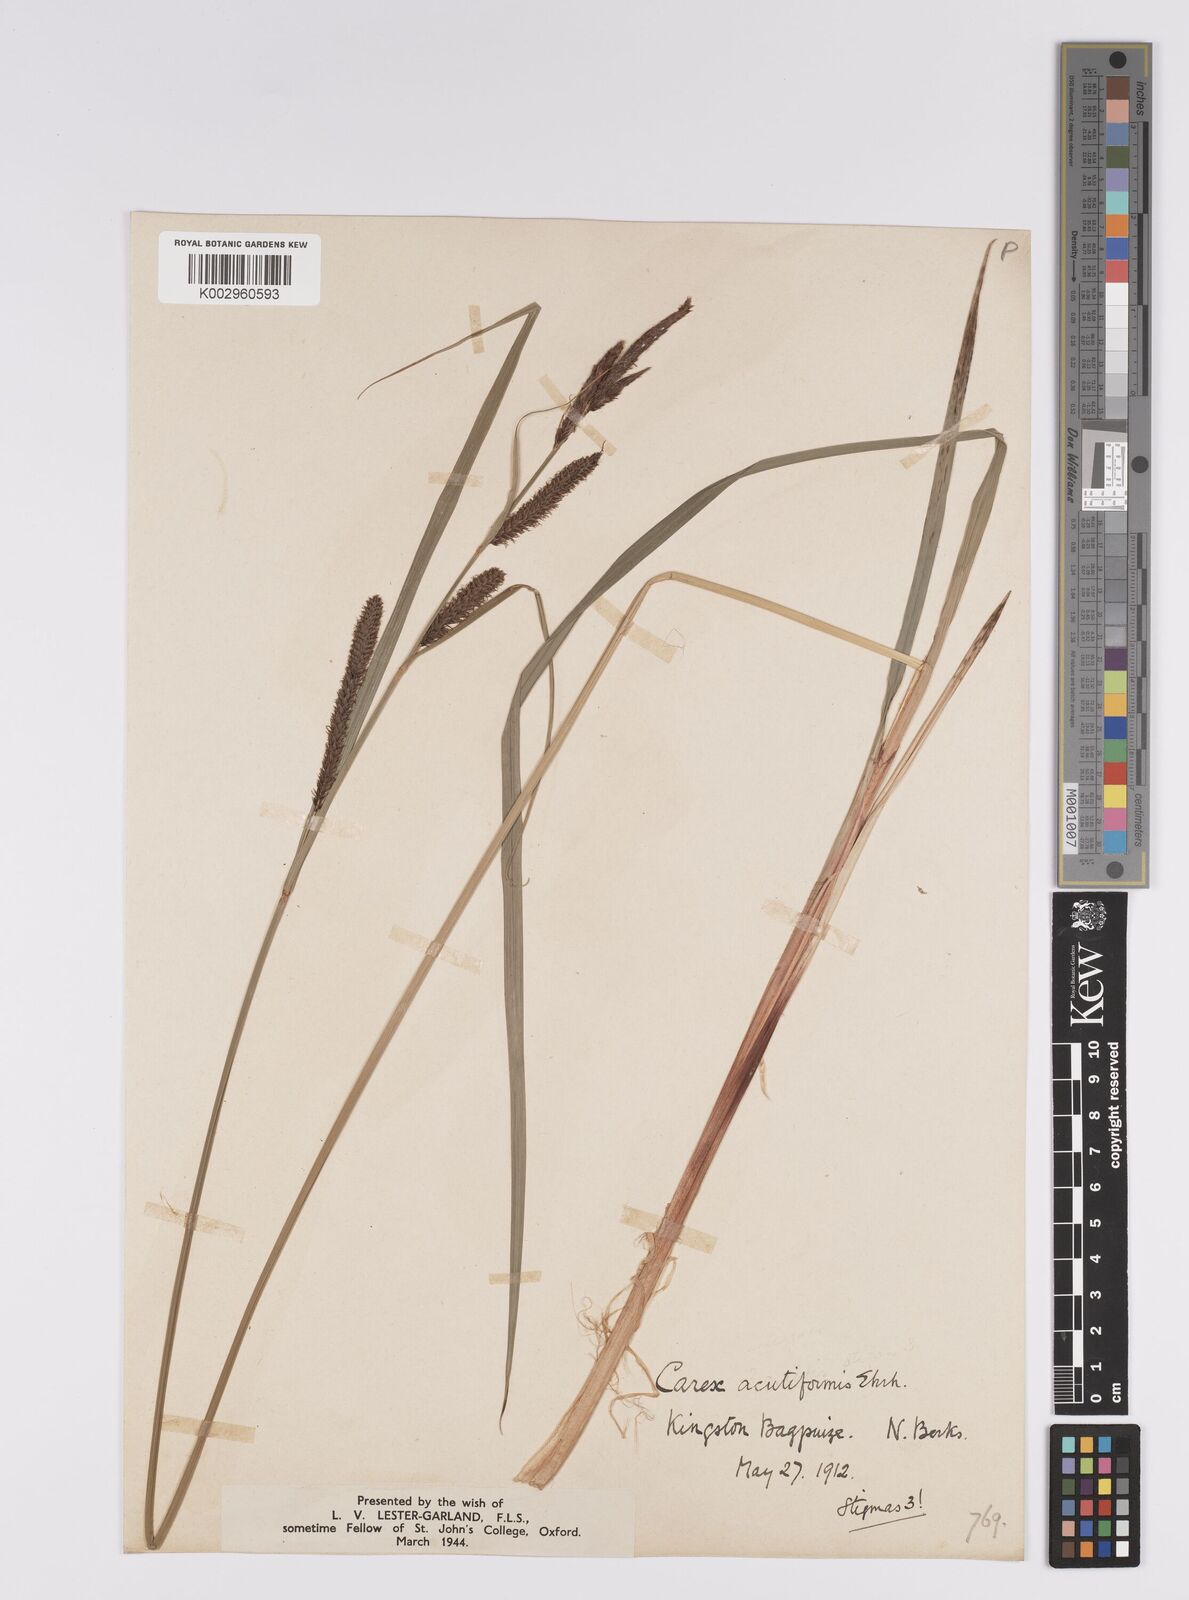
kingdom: Plantae
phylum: Tracheophyta
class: Liliopsida
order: Poales
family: Cyperaceae
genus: Carex
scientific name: Carex acutiformis
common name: Lesser pond-sedge
